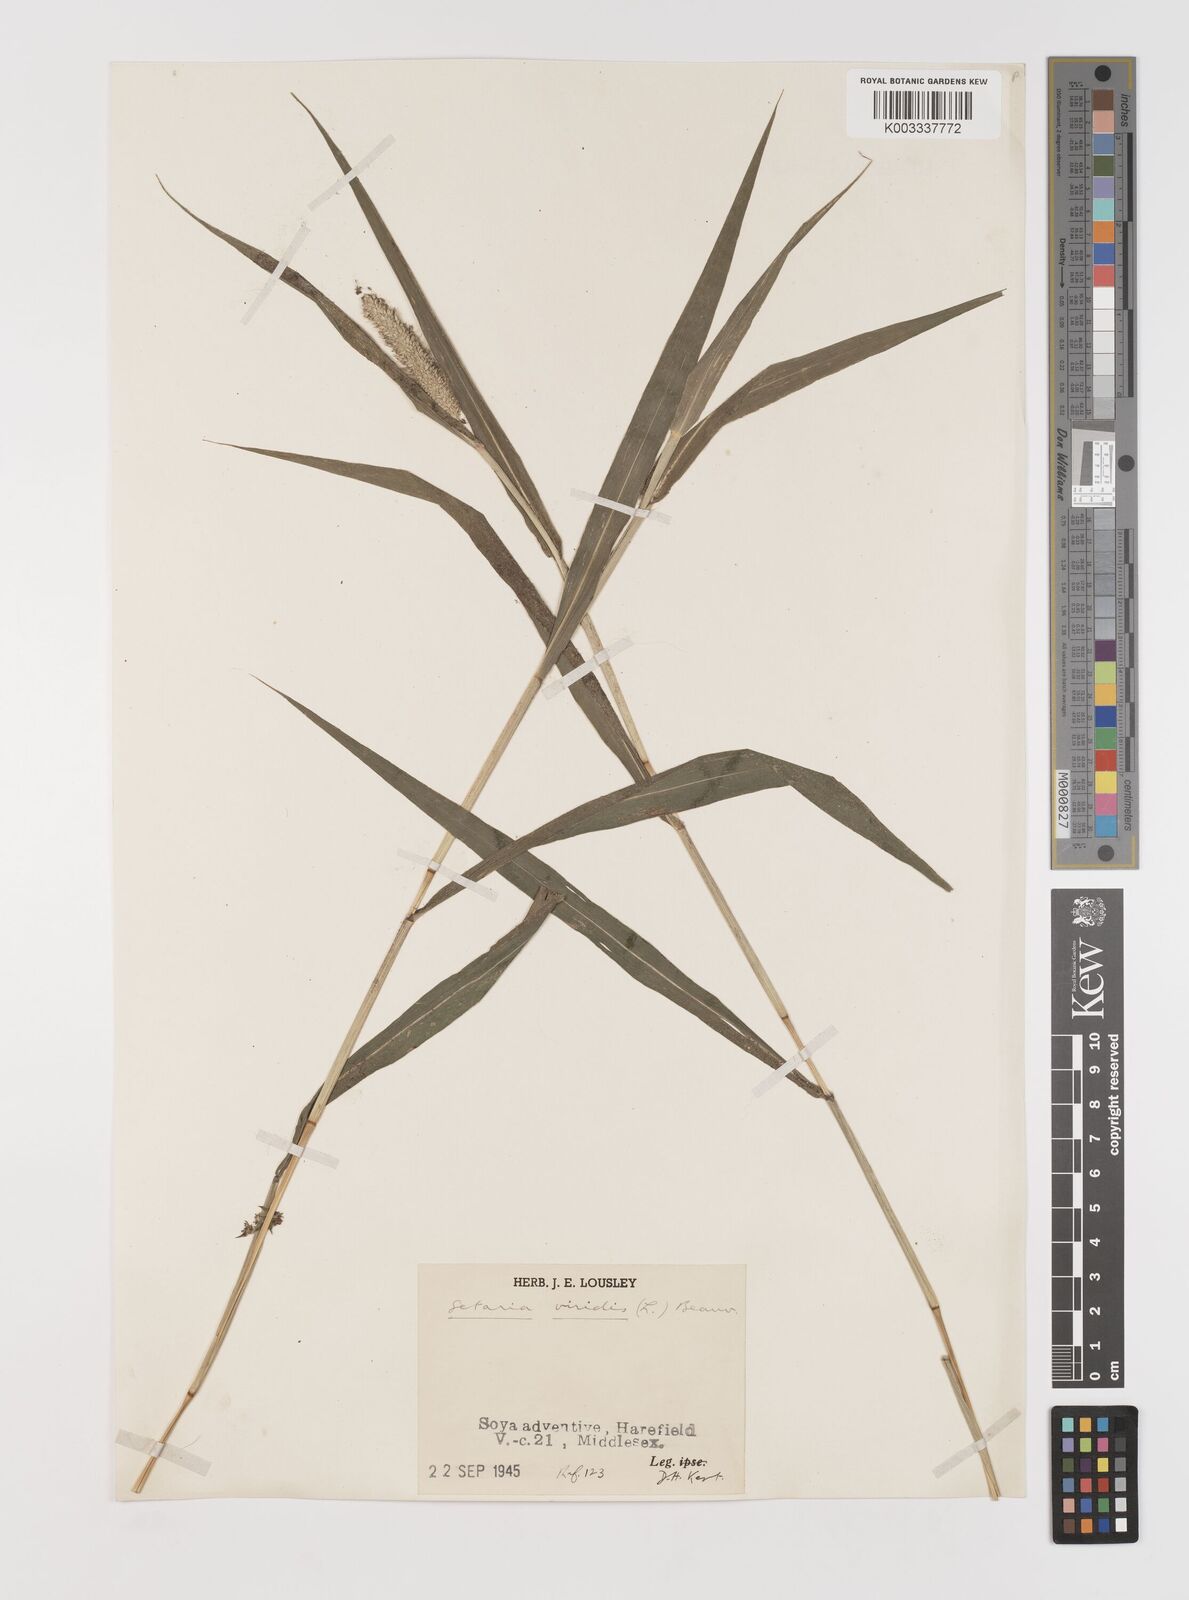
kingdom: Plantae
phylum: Tracheophyta
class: Liliopsida
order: Poales
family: Poaceae
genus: Setaria
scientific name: Setaria viridis
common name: Green bristlegrass
